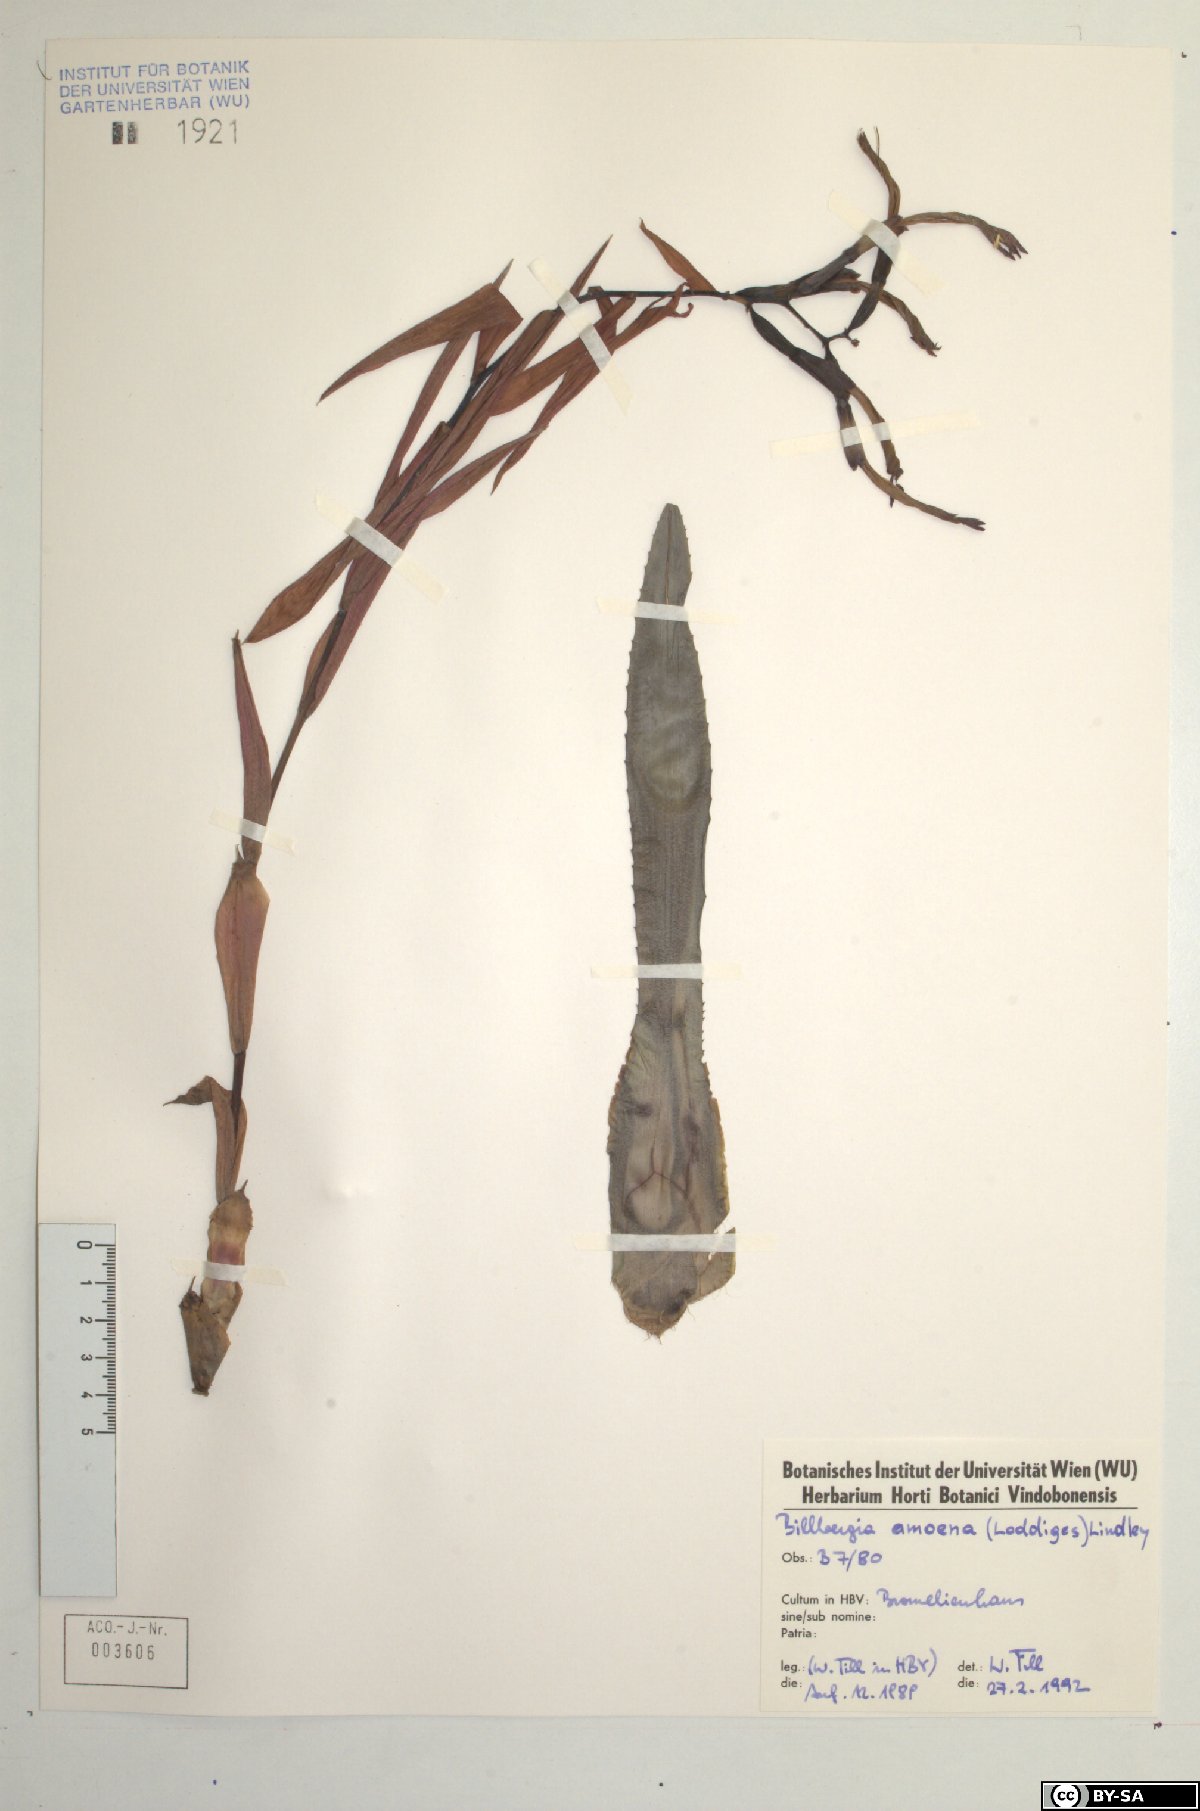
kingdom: Plantae
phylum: Tracheophyta
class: Liliopsida
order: Poales
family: Bromeliaceae
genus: Billbergia
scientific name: Billbergia amoena
